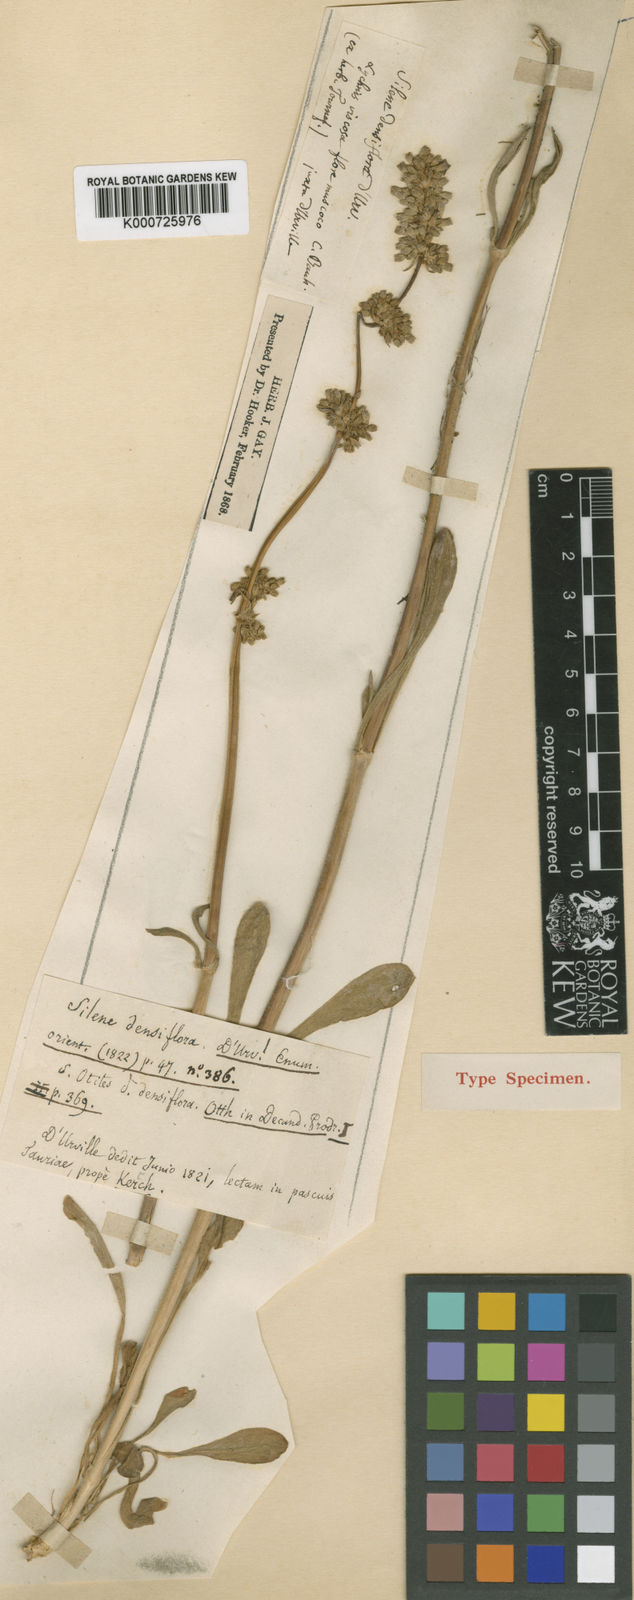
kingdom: Plantae
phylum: Tracheophyta
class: Magnoliopsida
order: Caryophyllales
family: Caryophyllaceae
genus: Silene
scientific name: Silene densiflora
